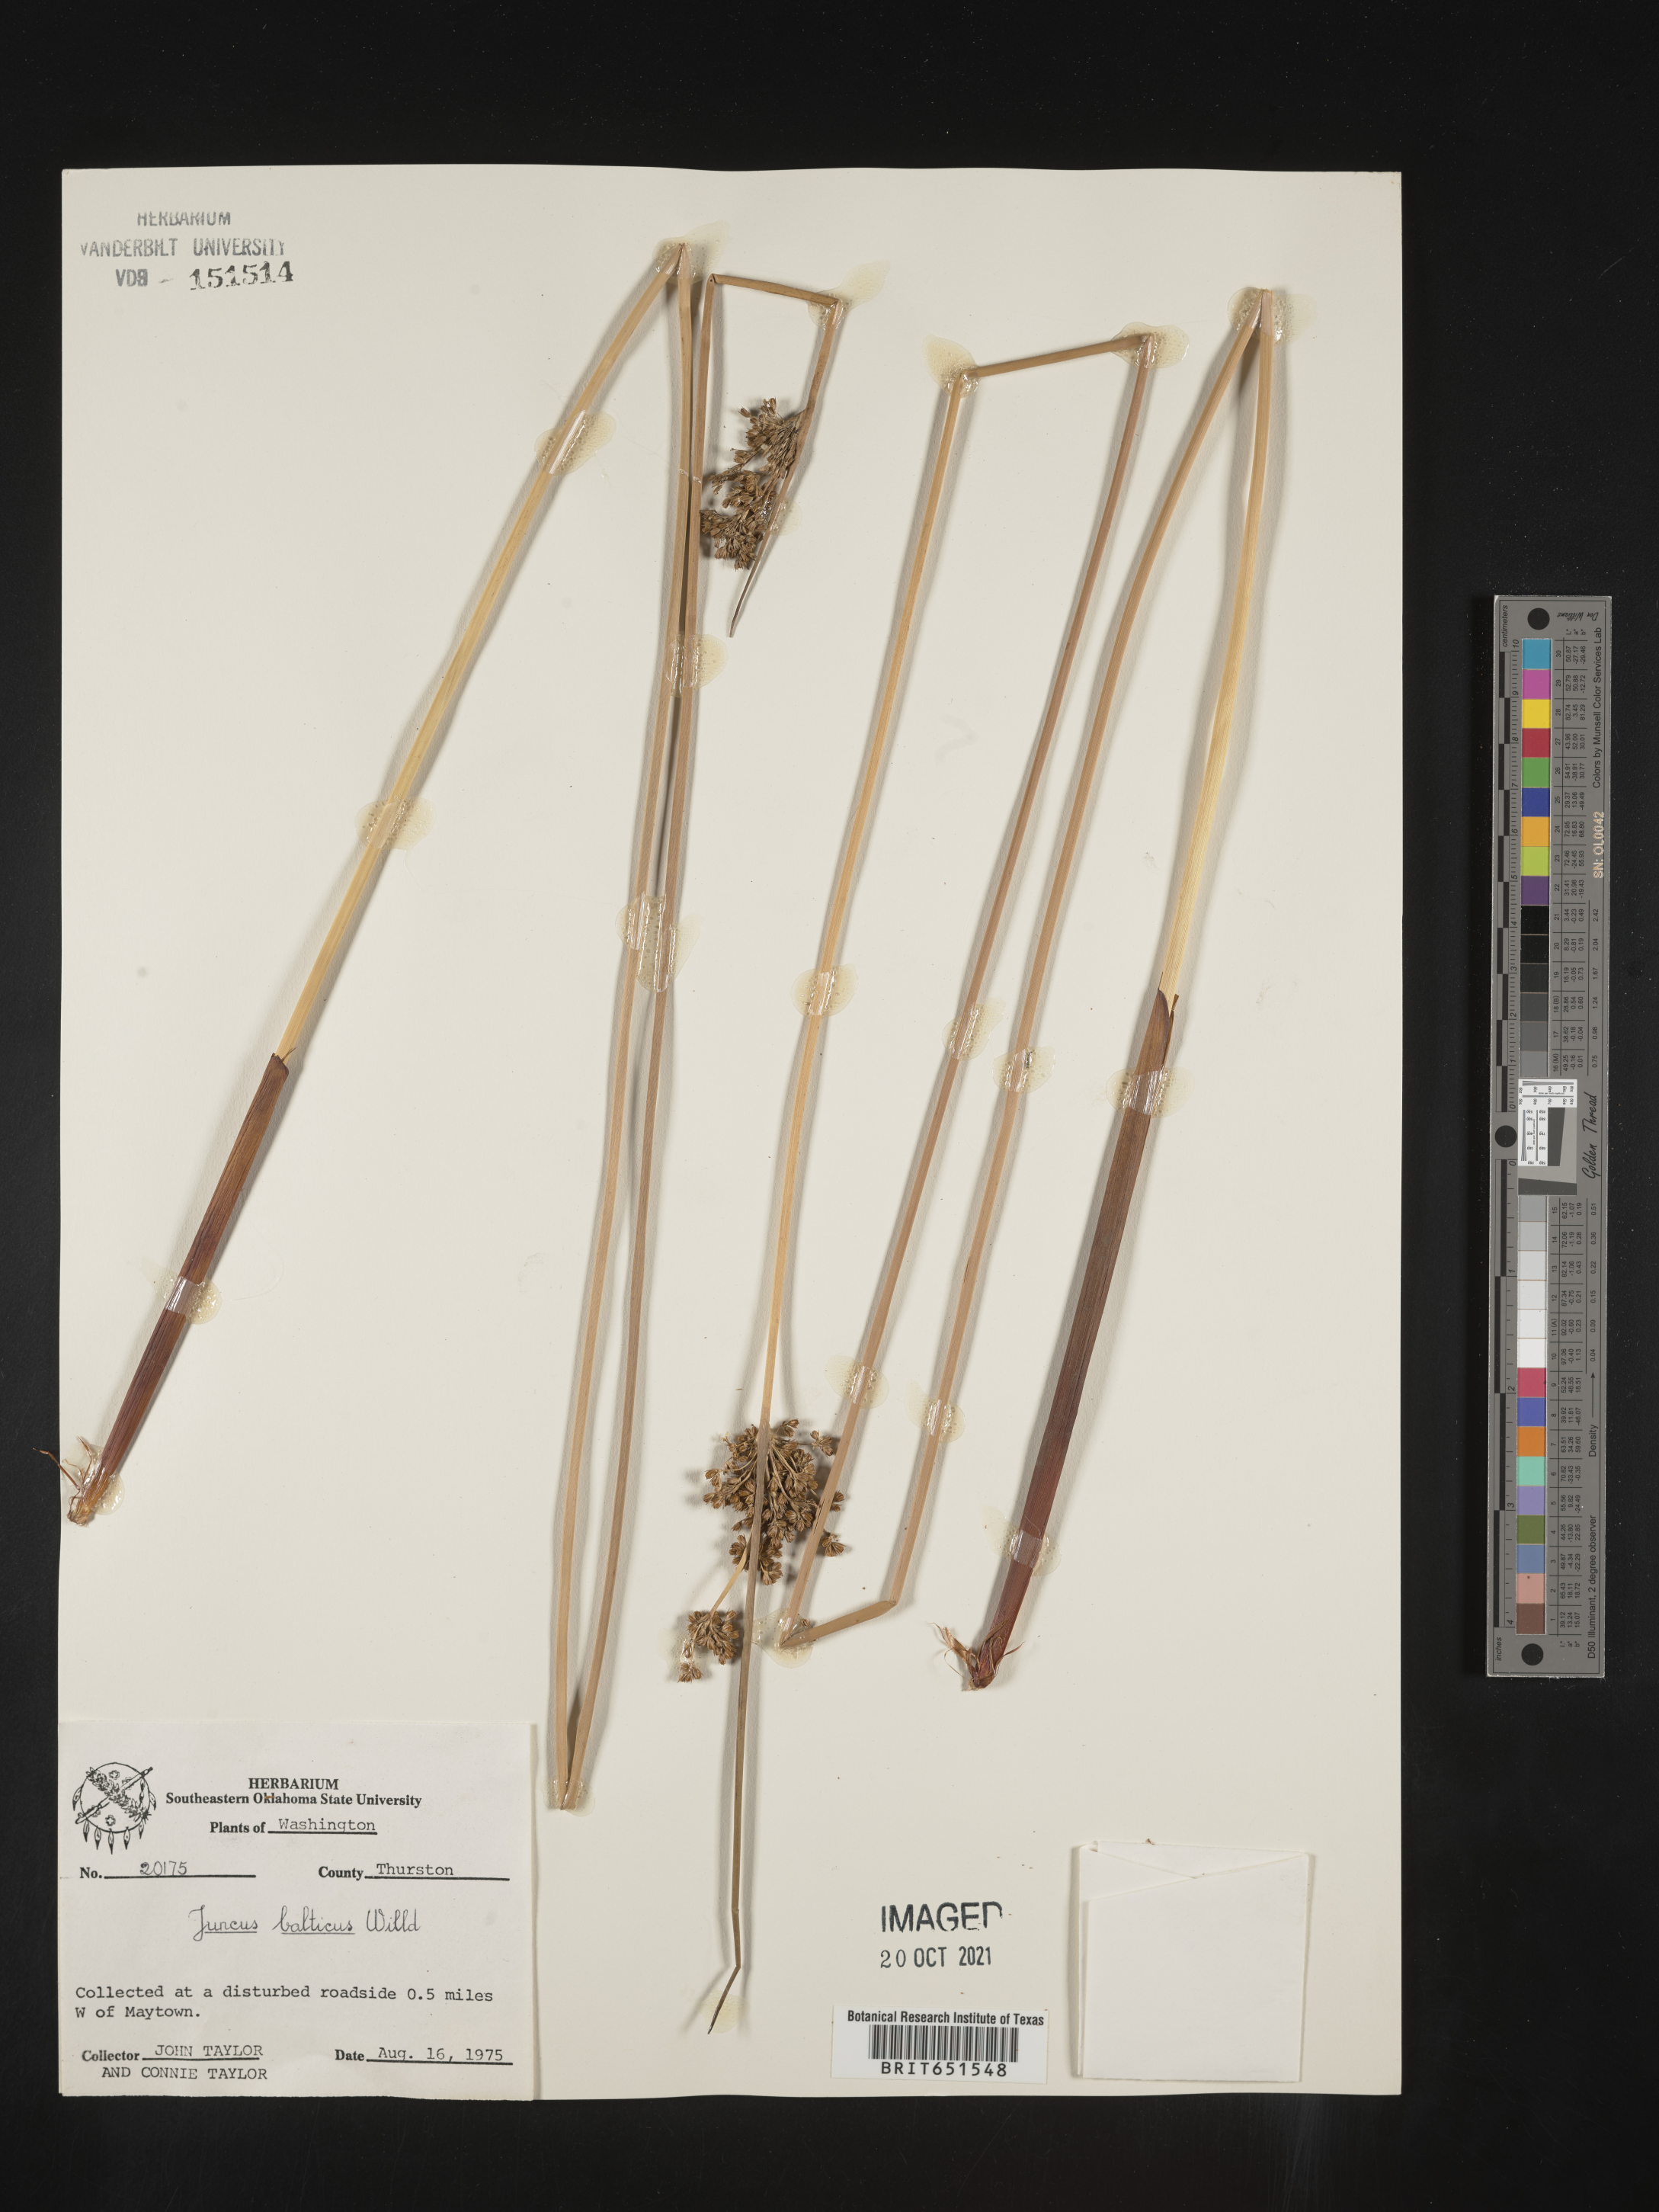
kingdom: Plantae
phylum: Tracheophyta
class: Liliopsida
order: Poales
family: Juncaceae
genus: Juncus
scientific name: Juncus balticus
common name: Baltic rush
